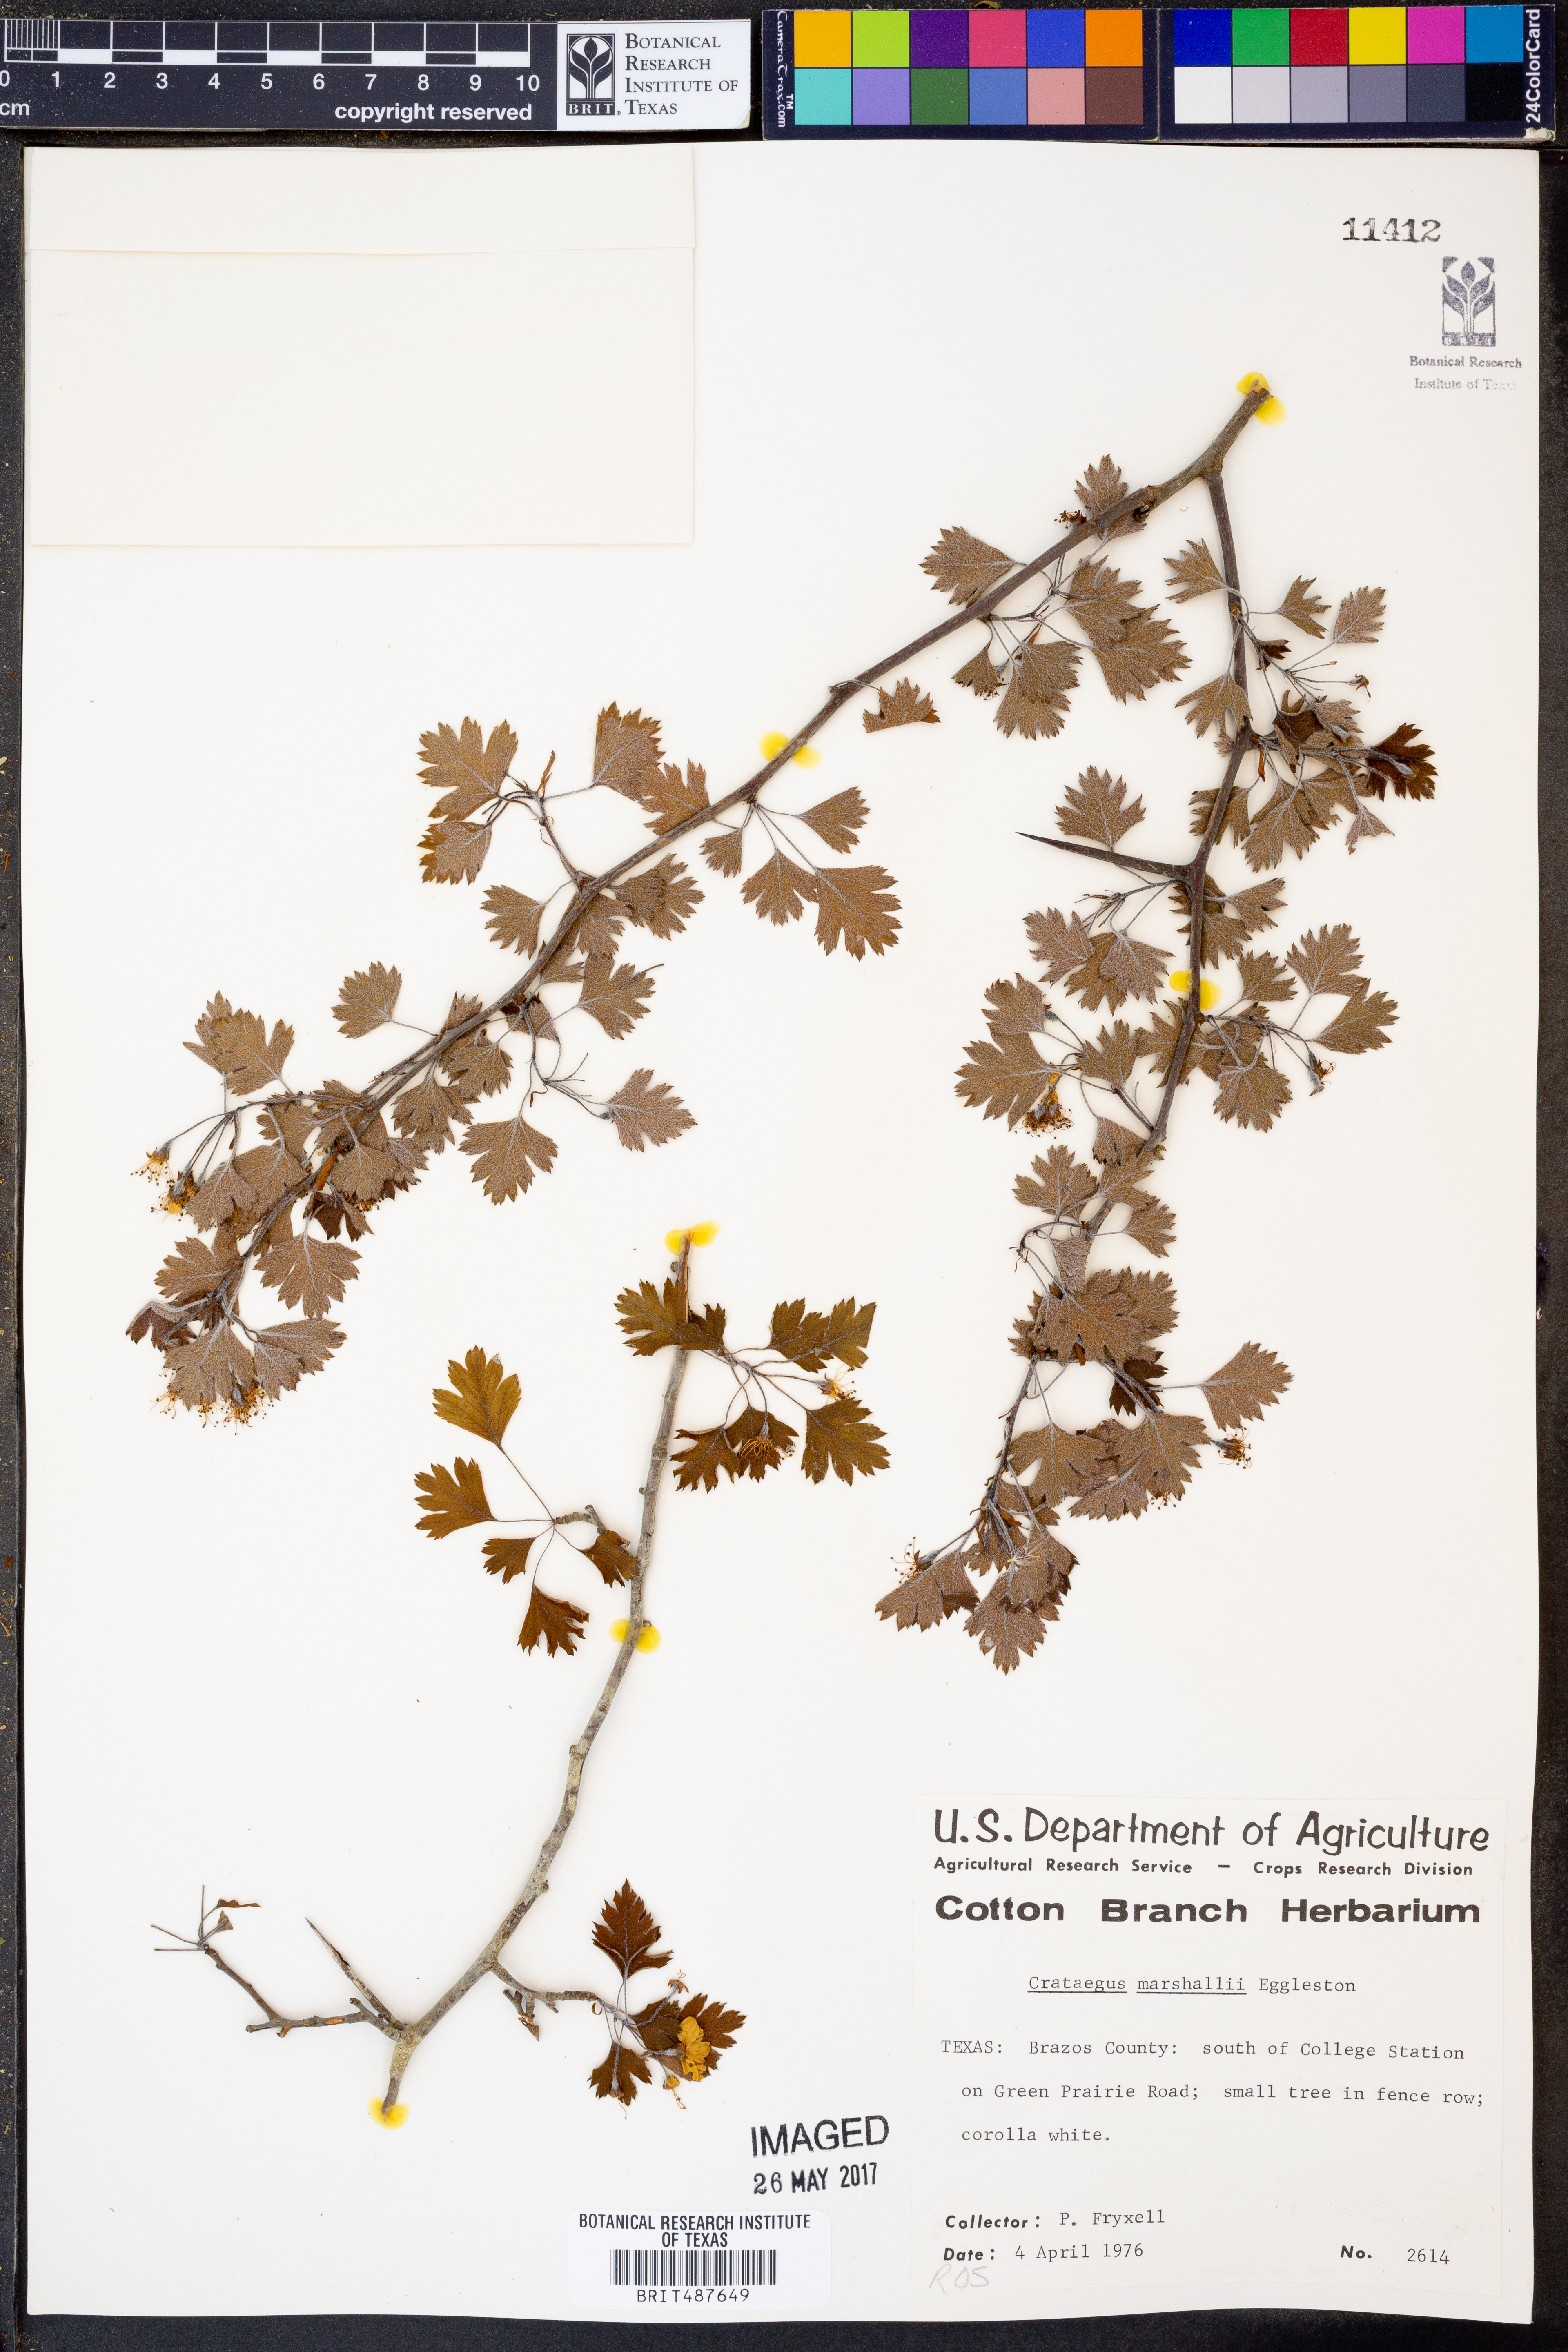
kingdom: Plantae
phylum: Tracheophyta
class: Magnoliopsida
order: Rosales
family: Rosaceae
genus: Crataegus
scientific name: Crataegus marshallii
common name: Parsley-hawthorn
